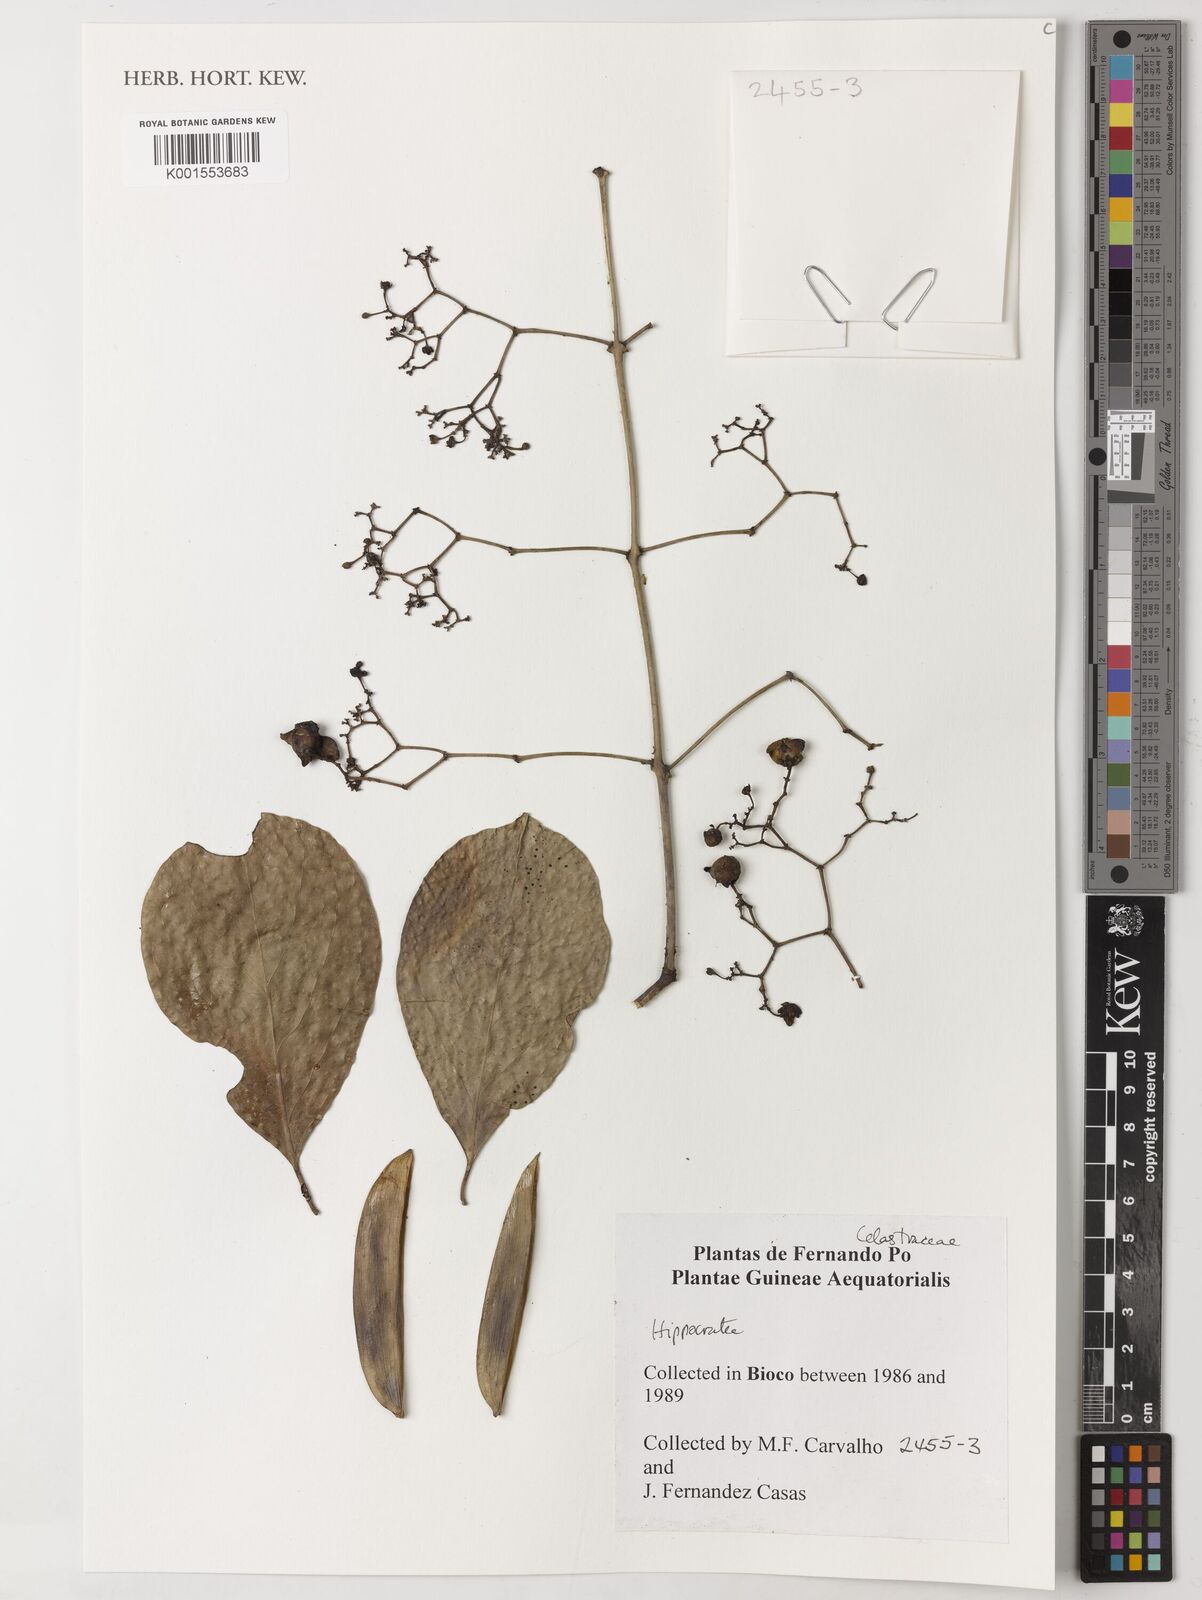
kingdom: Plantae
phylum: Tracheophyta
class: Magnoliopsida
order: Celastrales
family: Celastraceae
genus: Hippocratea
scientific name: Hippocratea
